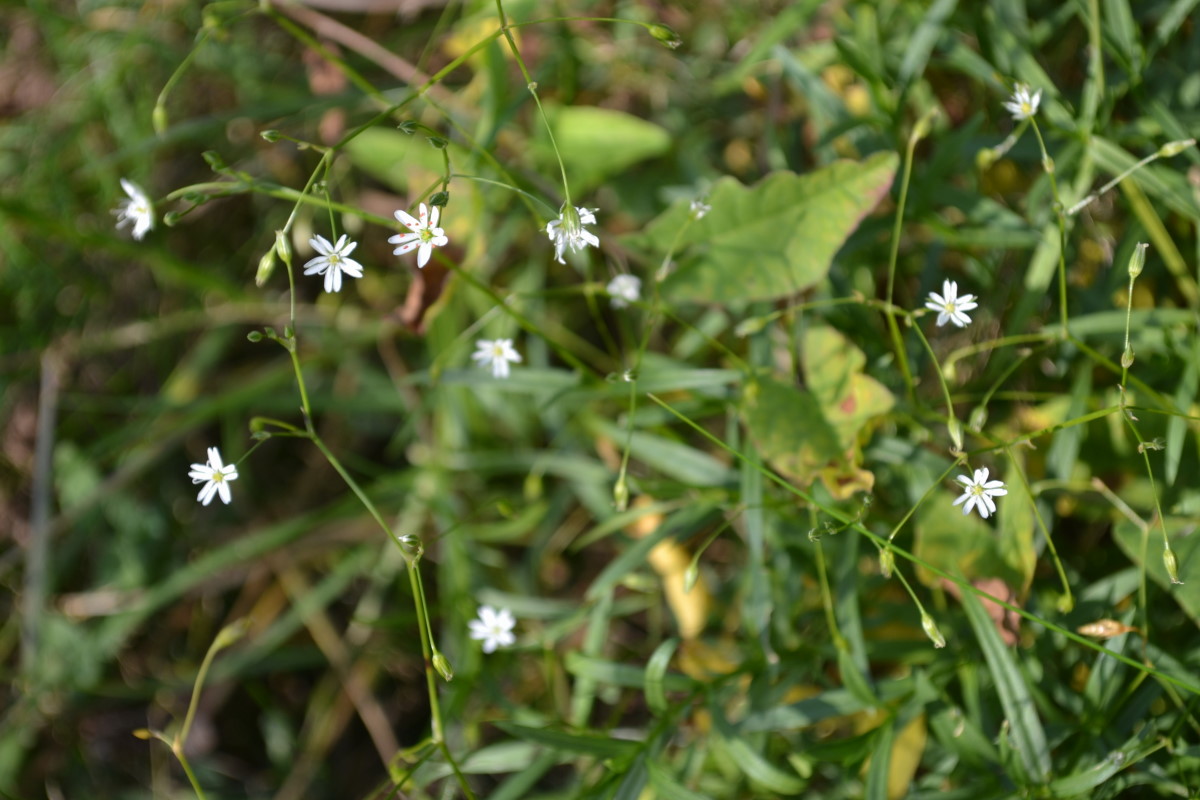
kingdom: Plantae
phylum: Tracheophyta
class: Magnoliopsida
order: Caryophyllales
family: Caryophyllaceae
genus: Rabelera
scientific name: Rabelera holostea
